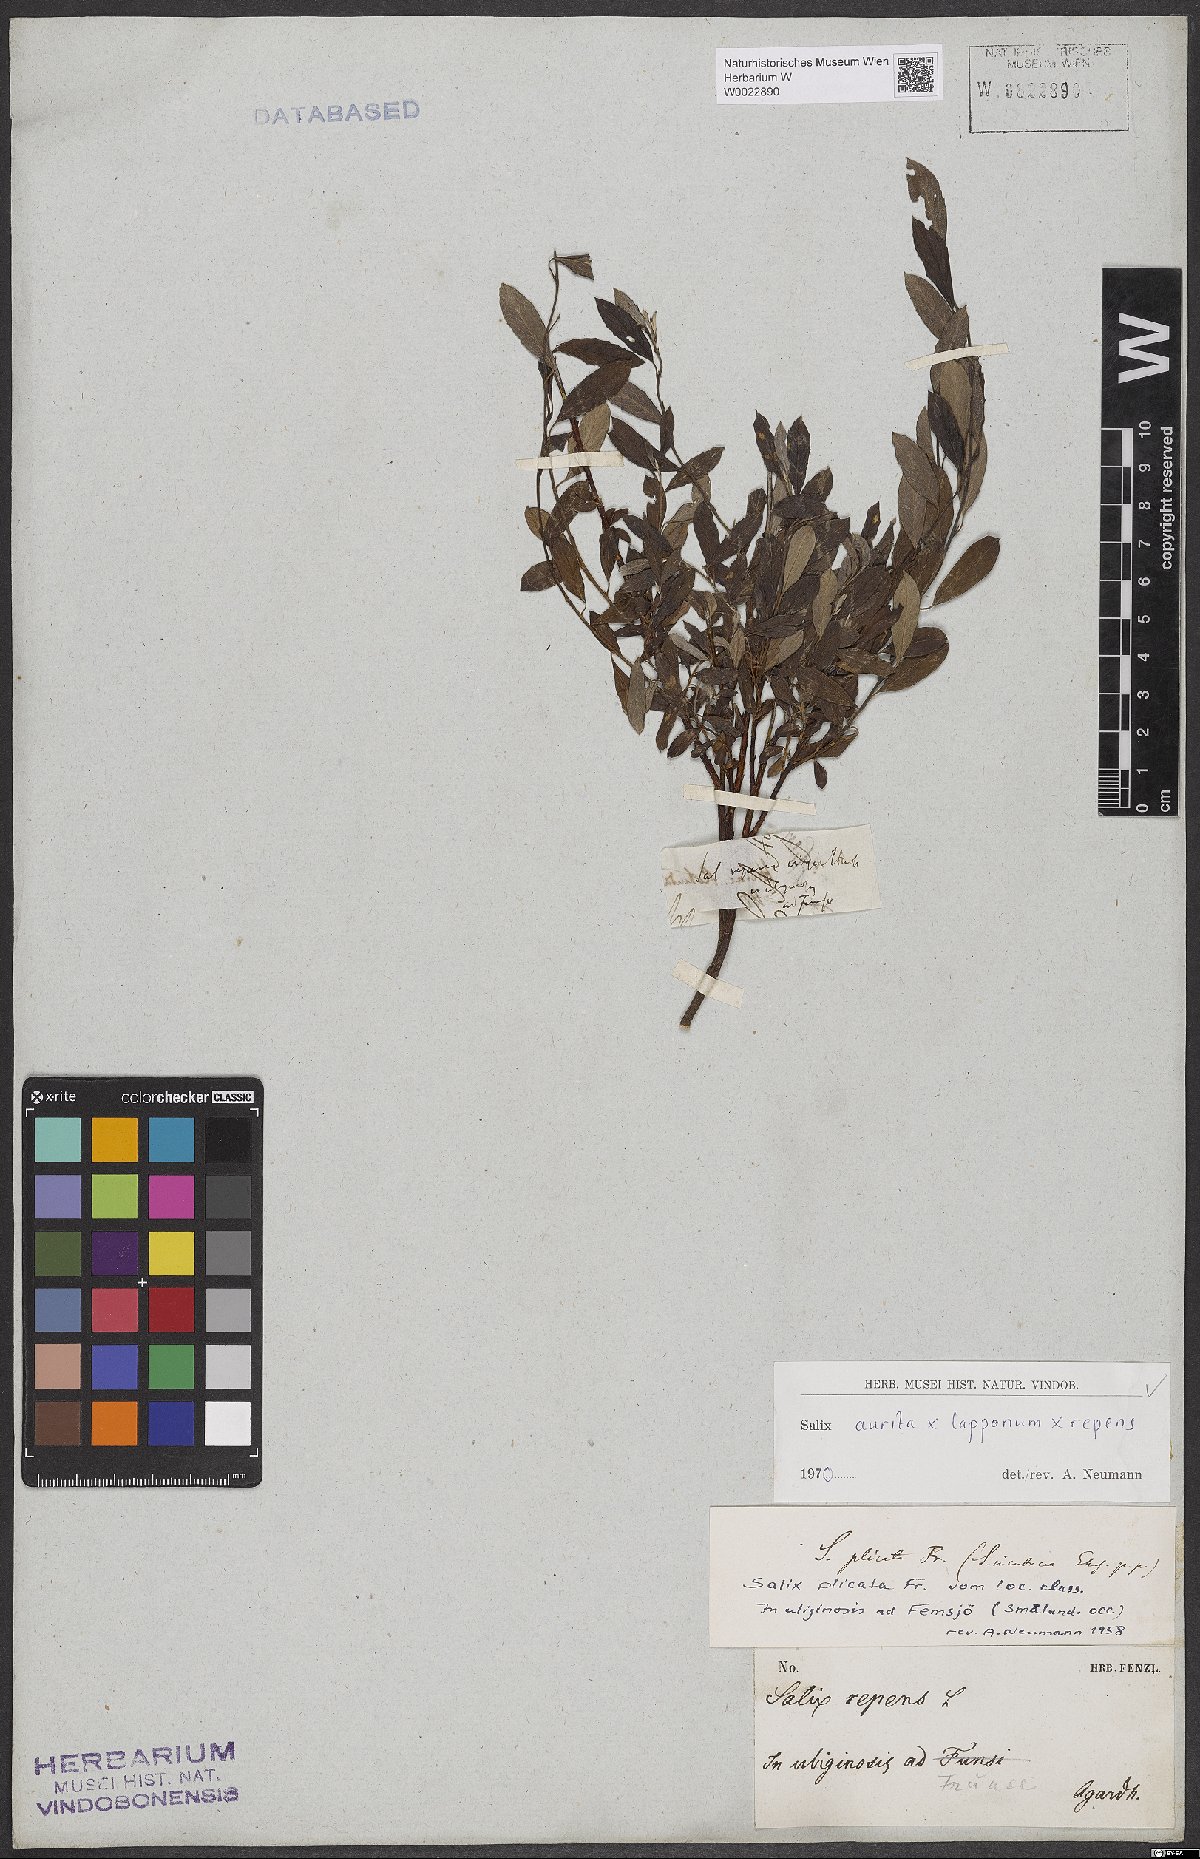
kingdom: Plantae
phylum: Tracheophyta
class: Magnoliopsida
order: Malpighiales
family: Salicaceae
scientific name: Salicaceae
